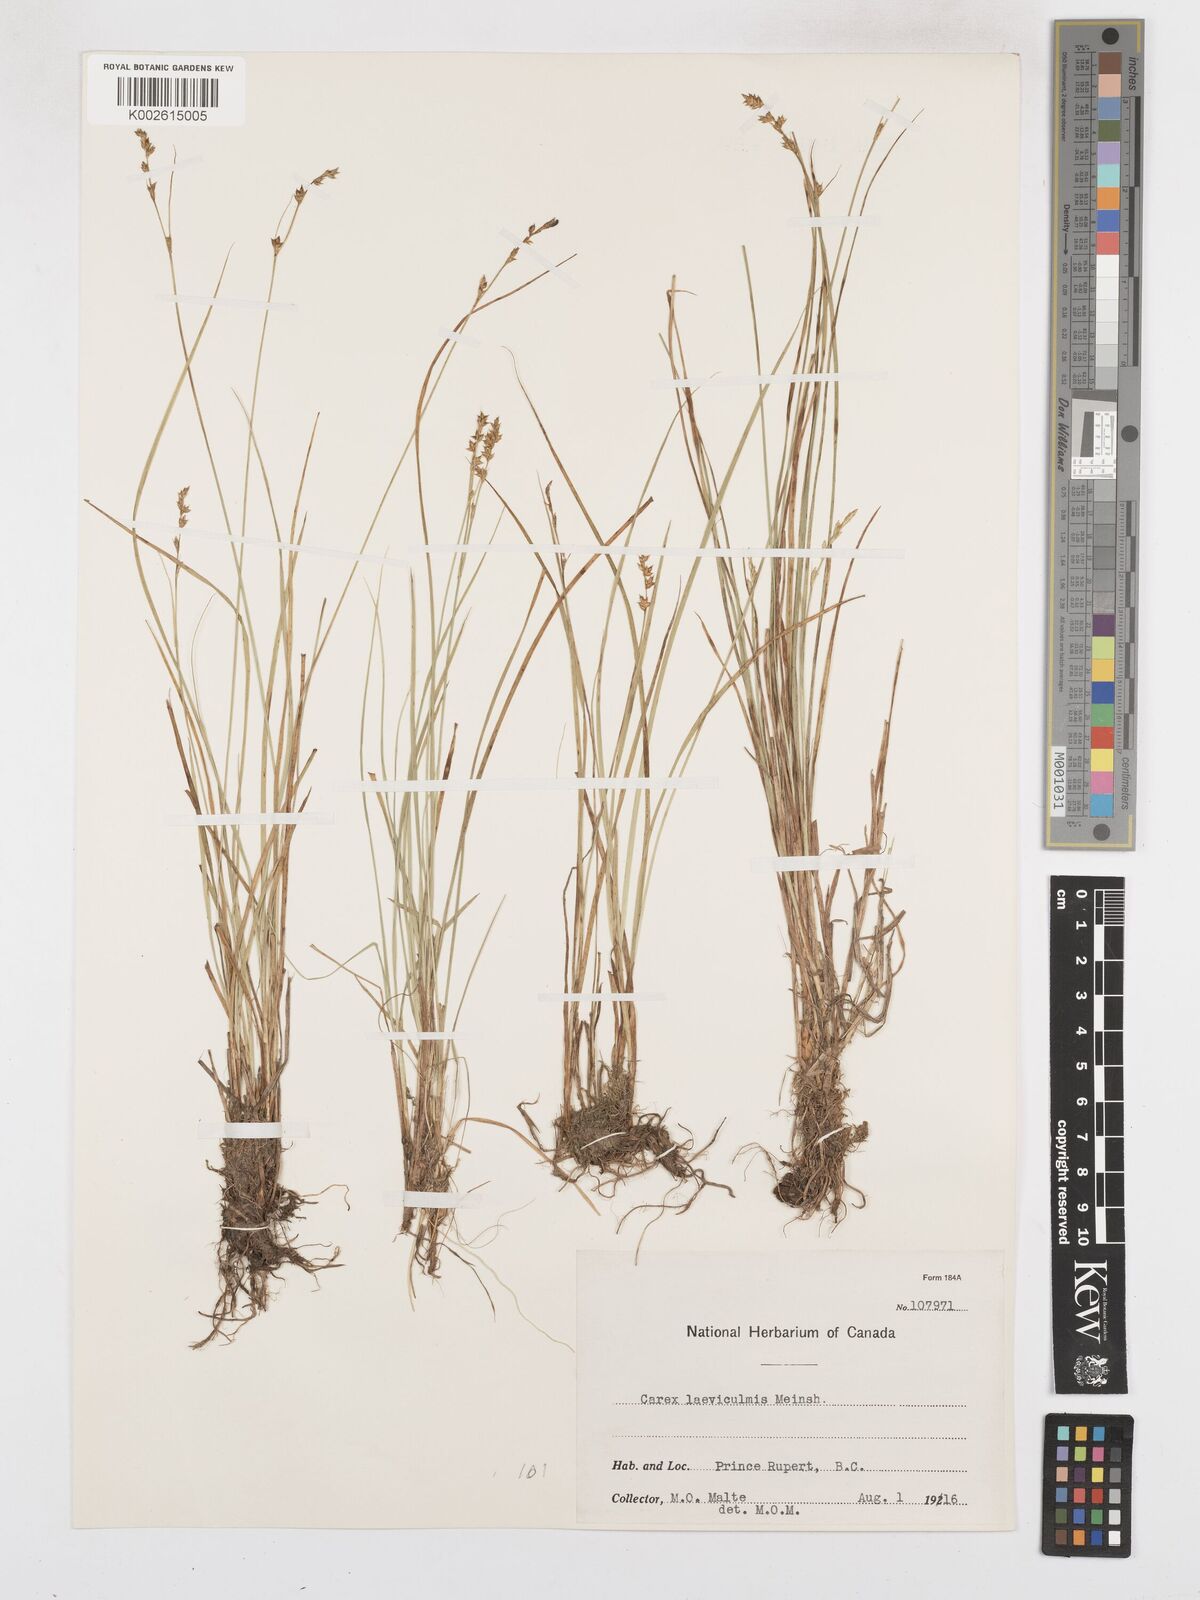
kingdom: Plantae
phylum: Tracheophyta
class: Liliopsida
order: Poales
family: Cyperaceae
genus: Carex
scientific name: Carex laeviculmis
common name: Smooth sedge
